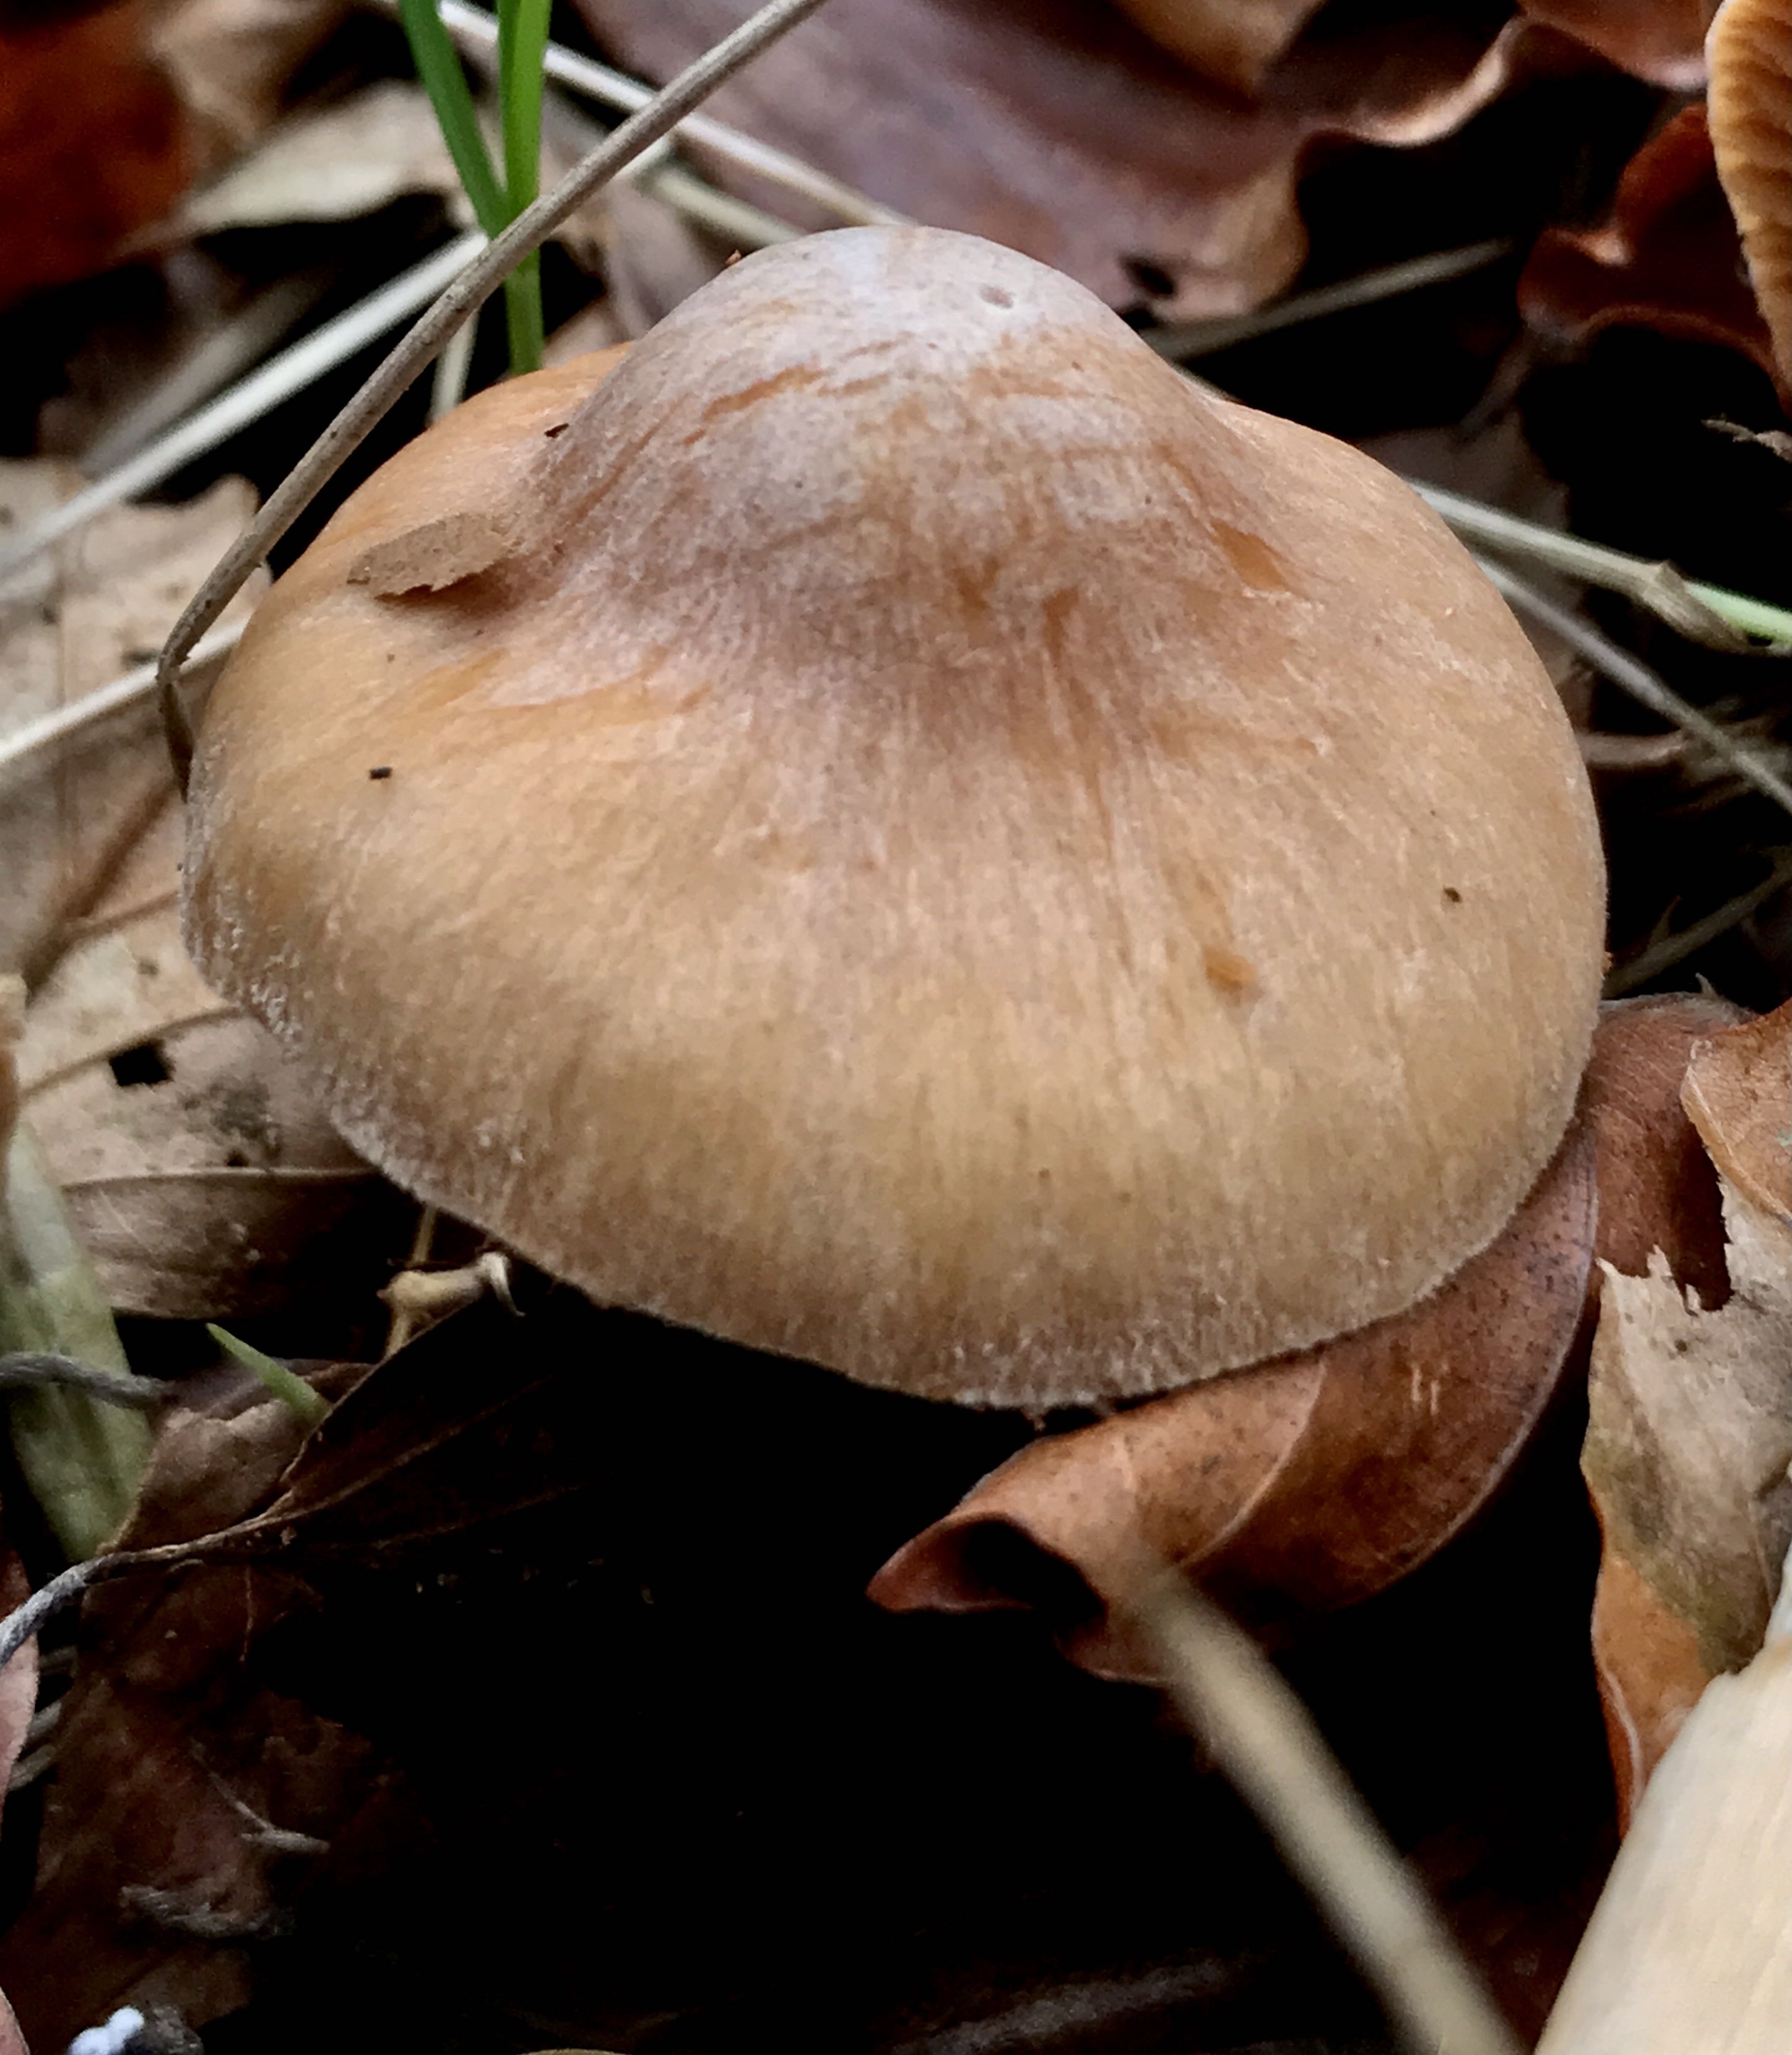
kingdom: Fungi
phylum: Basidiomycota
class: Agaricomycetes
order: Agaricales
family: Cortinariaceae
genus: Cortinarius
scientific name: Cortinarius
